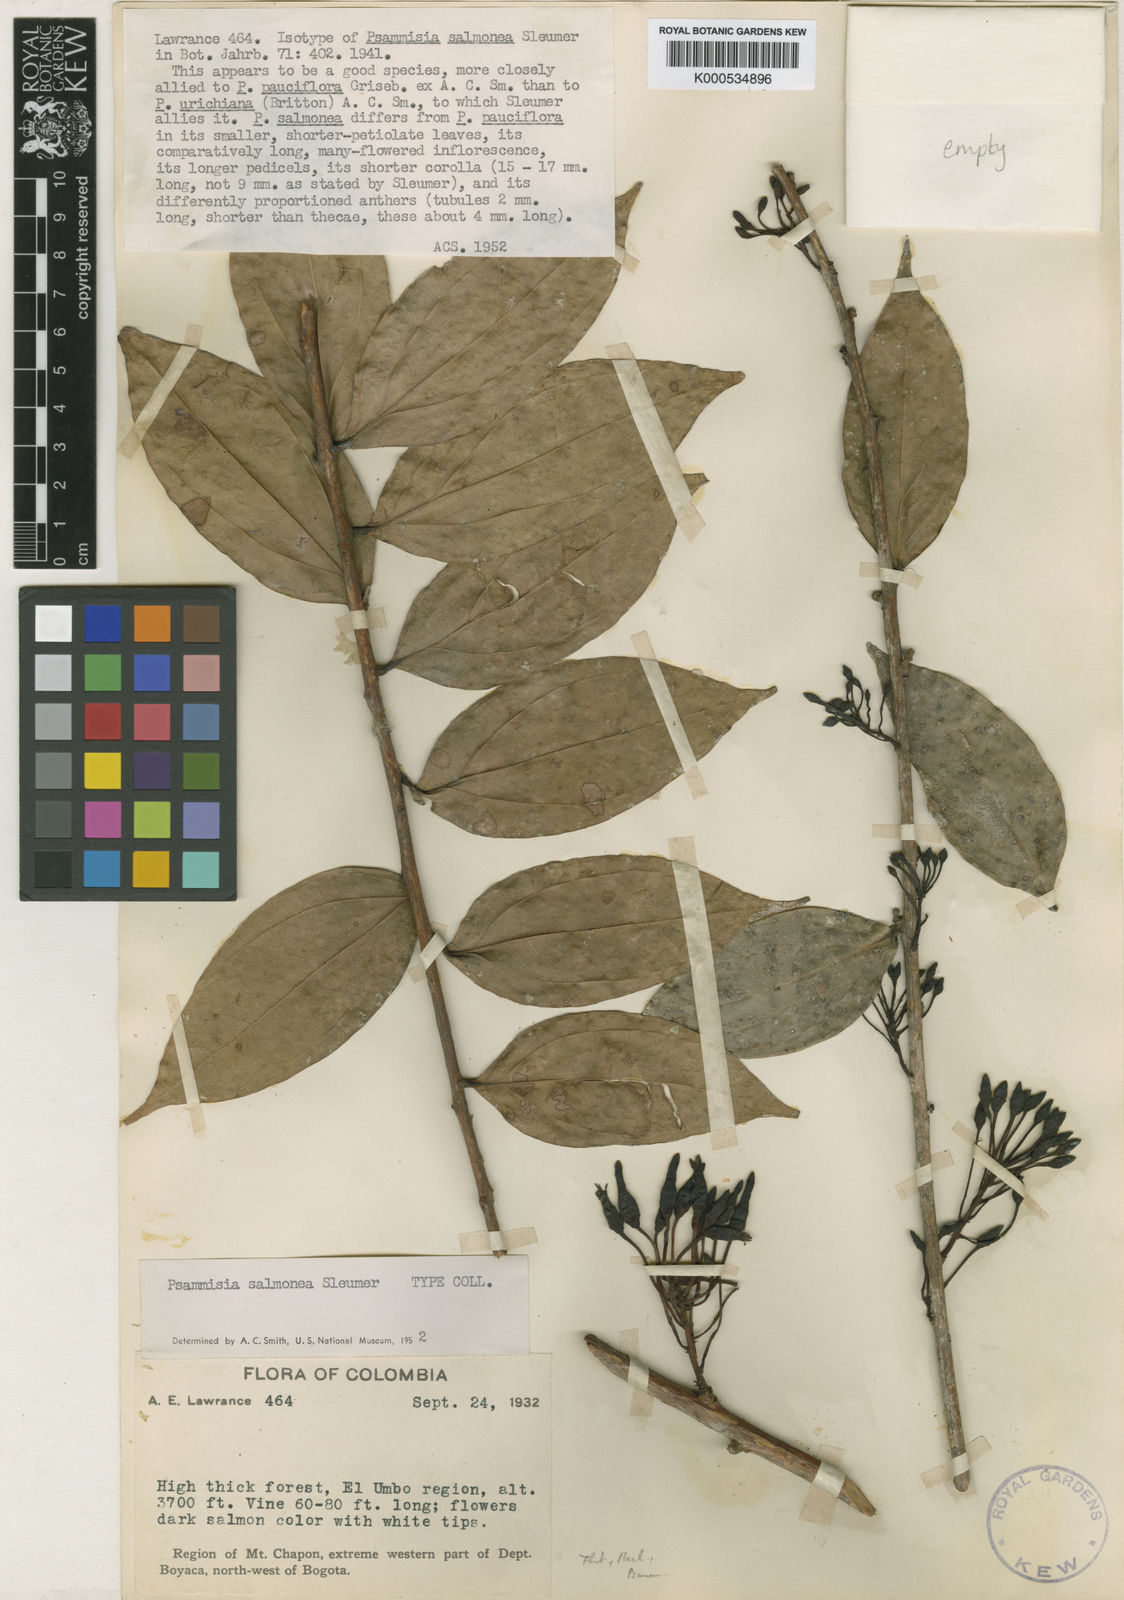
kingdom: Plantae
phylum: Tracheophyta
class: Magnoliopsida
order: Ericales
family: Ericaceae
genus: Psammisia
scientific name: Psammisia salmonea
